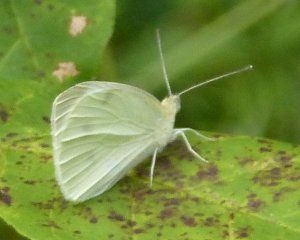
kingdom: Animalia
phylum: Arthropoda
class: Insecta
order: Lepidoptera
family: Pieridae
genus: Pieris
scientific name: Pieris rapae
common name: Cabbage White
